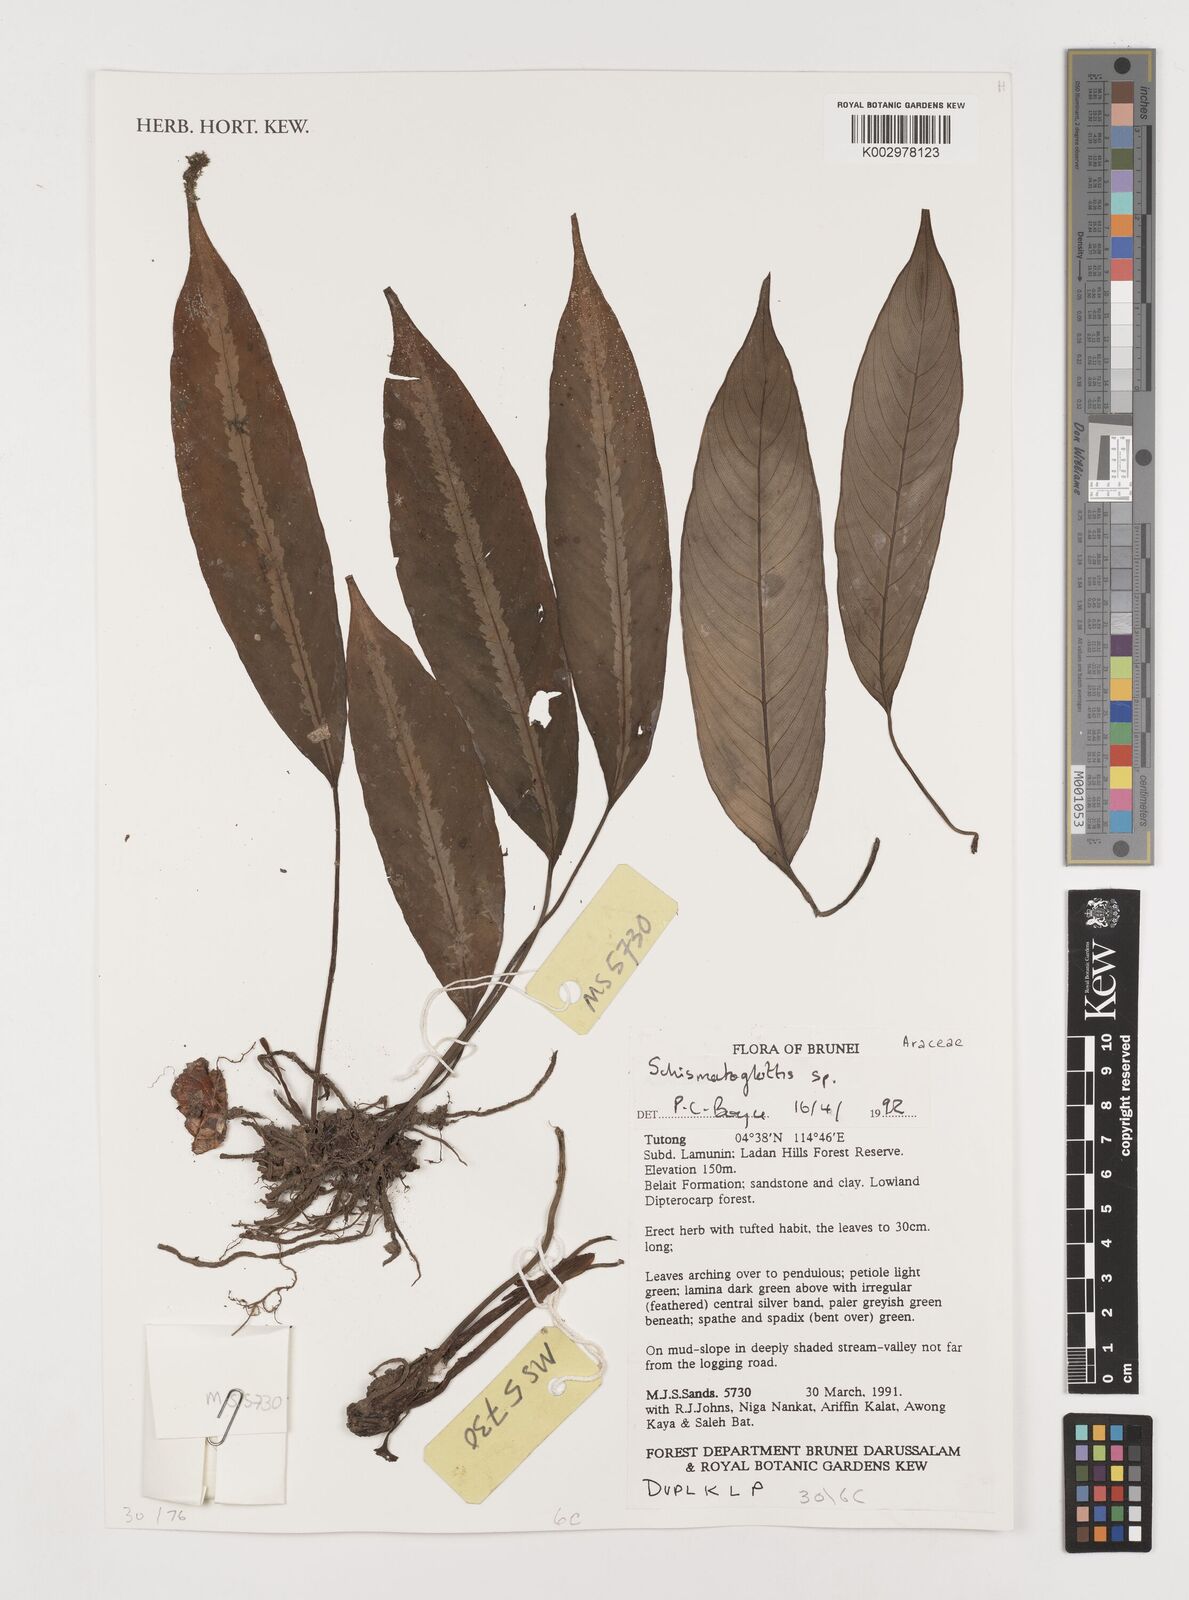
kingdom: Plantae
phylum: Tracheophyta
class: Liliopsida
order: Alismatales
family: Araceae
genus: Schismatoglottis
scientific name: Schismatoglottis
